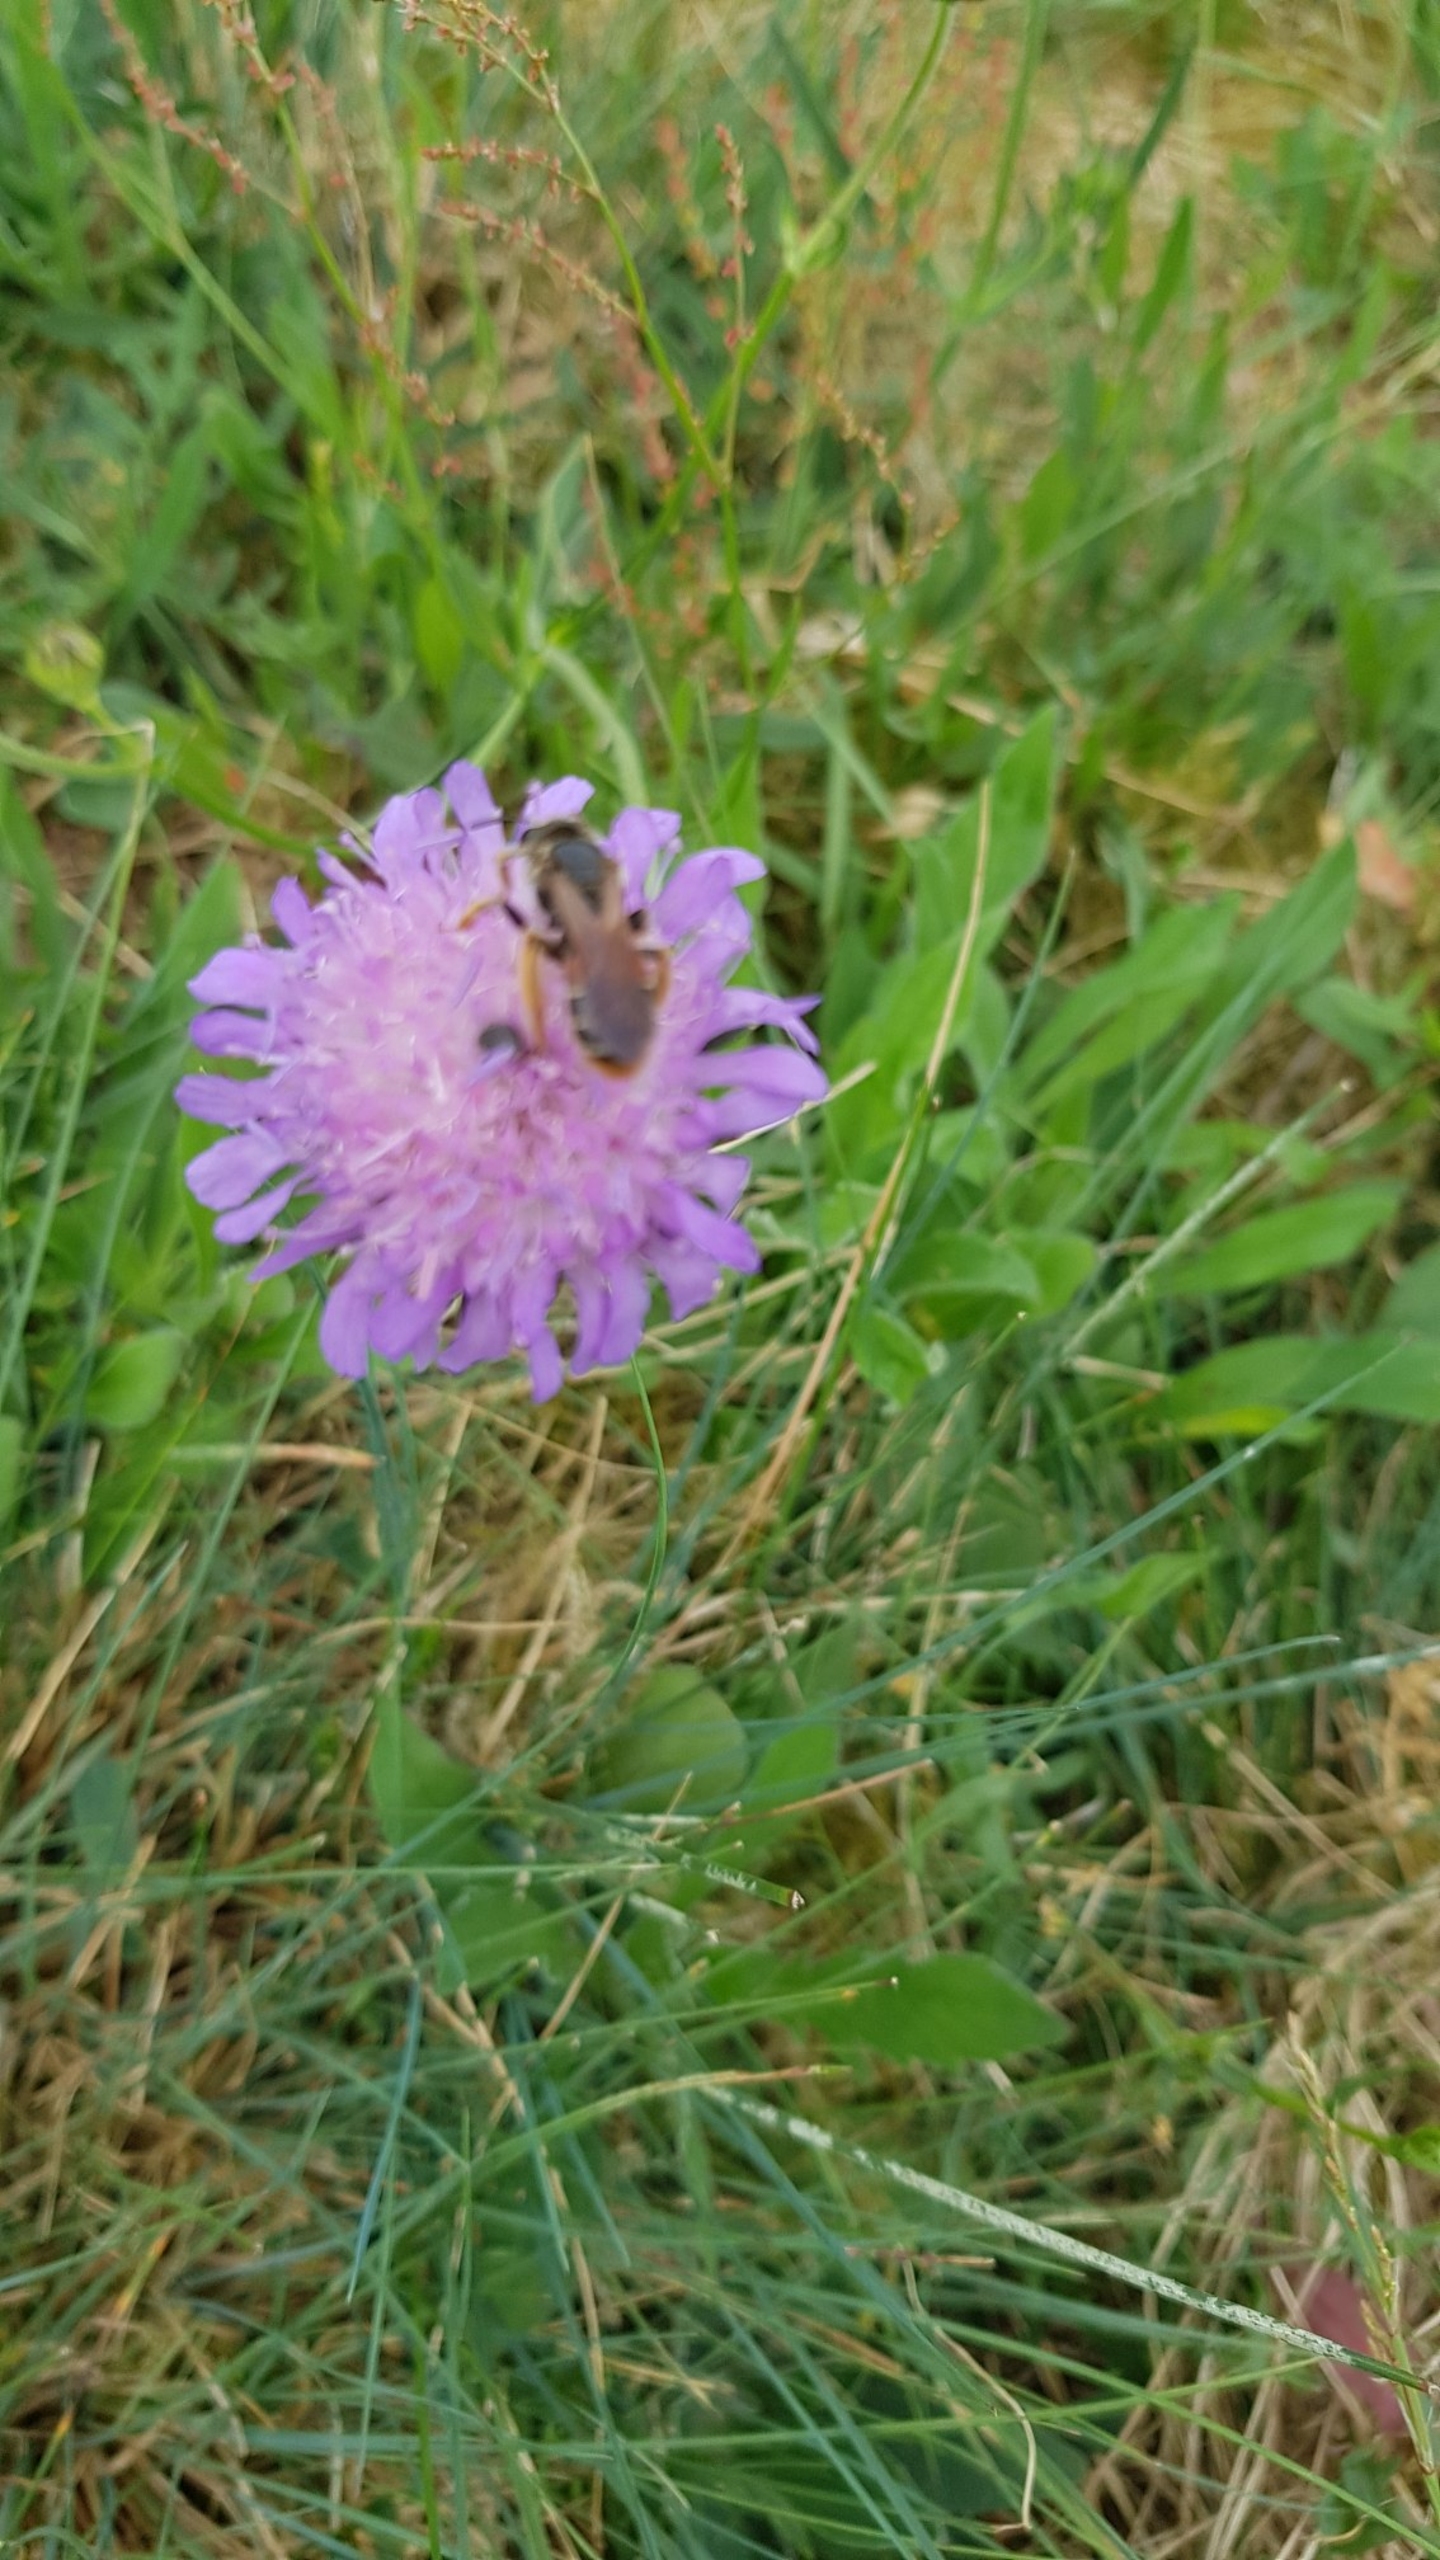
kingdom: Animalia
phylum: Arthropoda
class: Insecta
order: Hymenoptera
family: Andrenidae
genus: Andrena
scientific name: Andrena hattorfiana
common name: Blåhatjordbi
